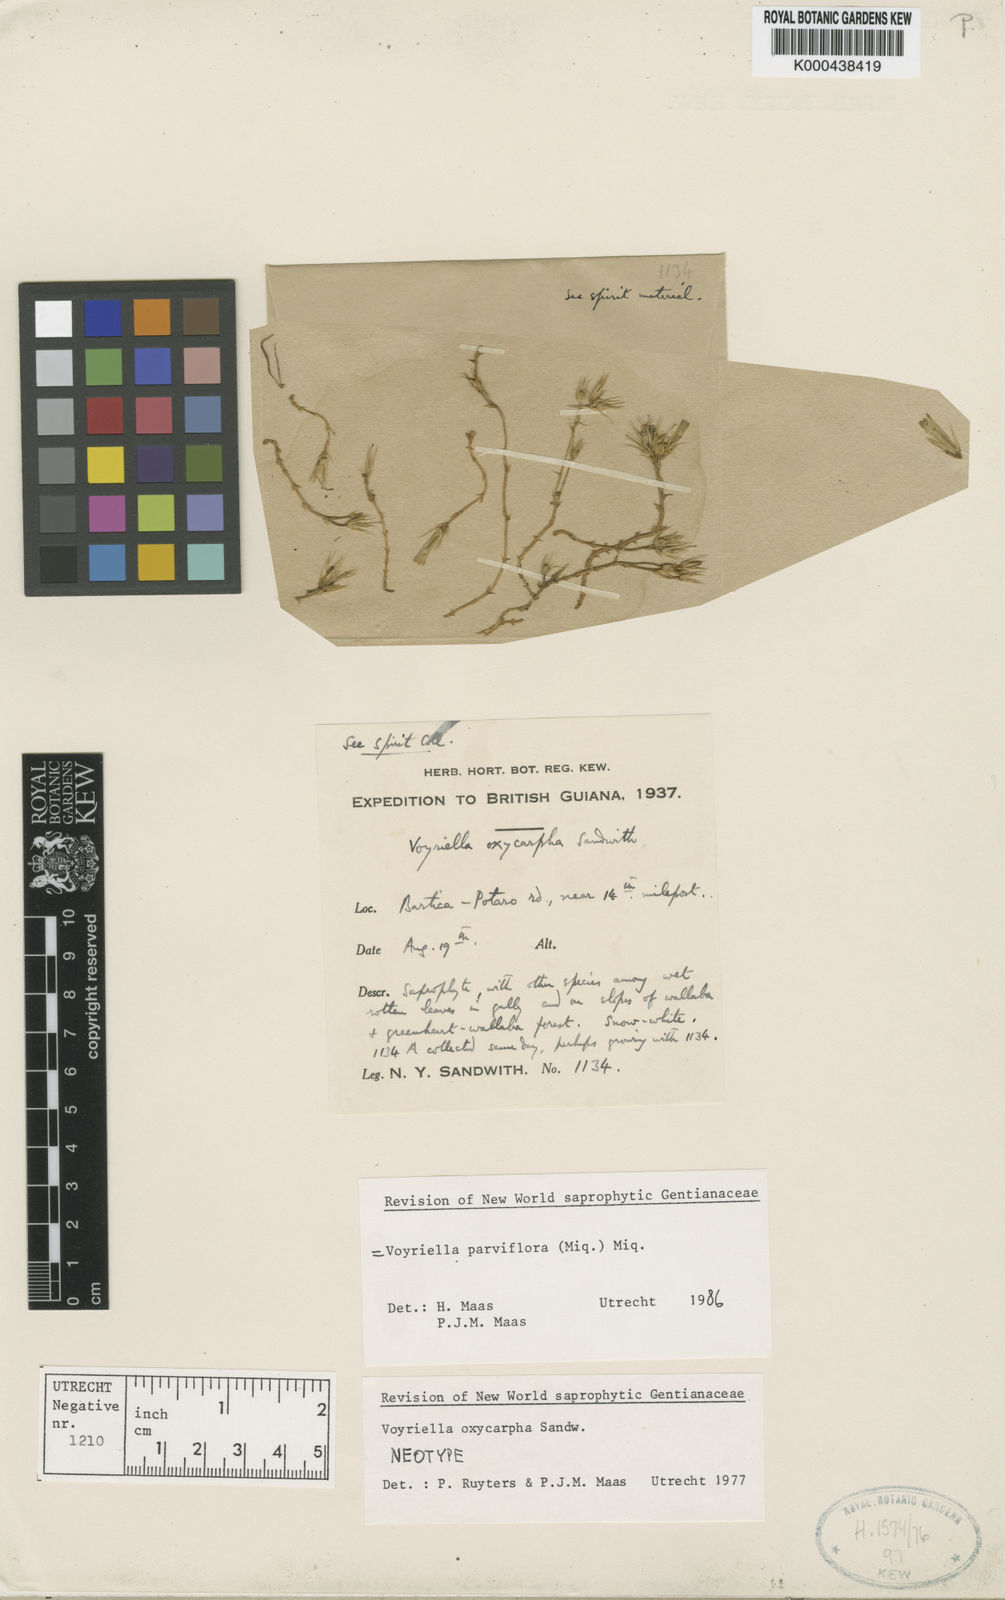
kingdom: Plantae
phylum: Tracheophyta
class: Magnoliopsida
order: Gentianales
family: Gentianaceae
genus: Voyriella
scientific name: Voyriella parviflora
